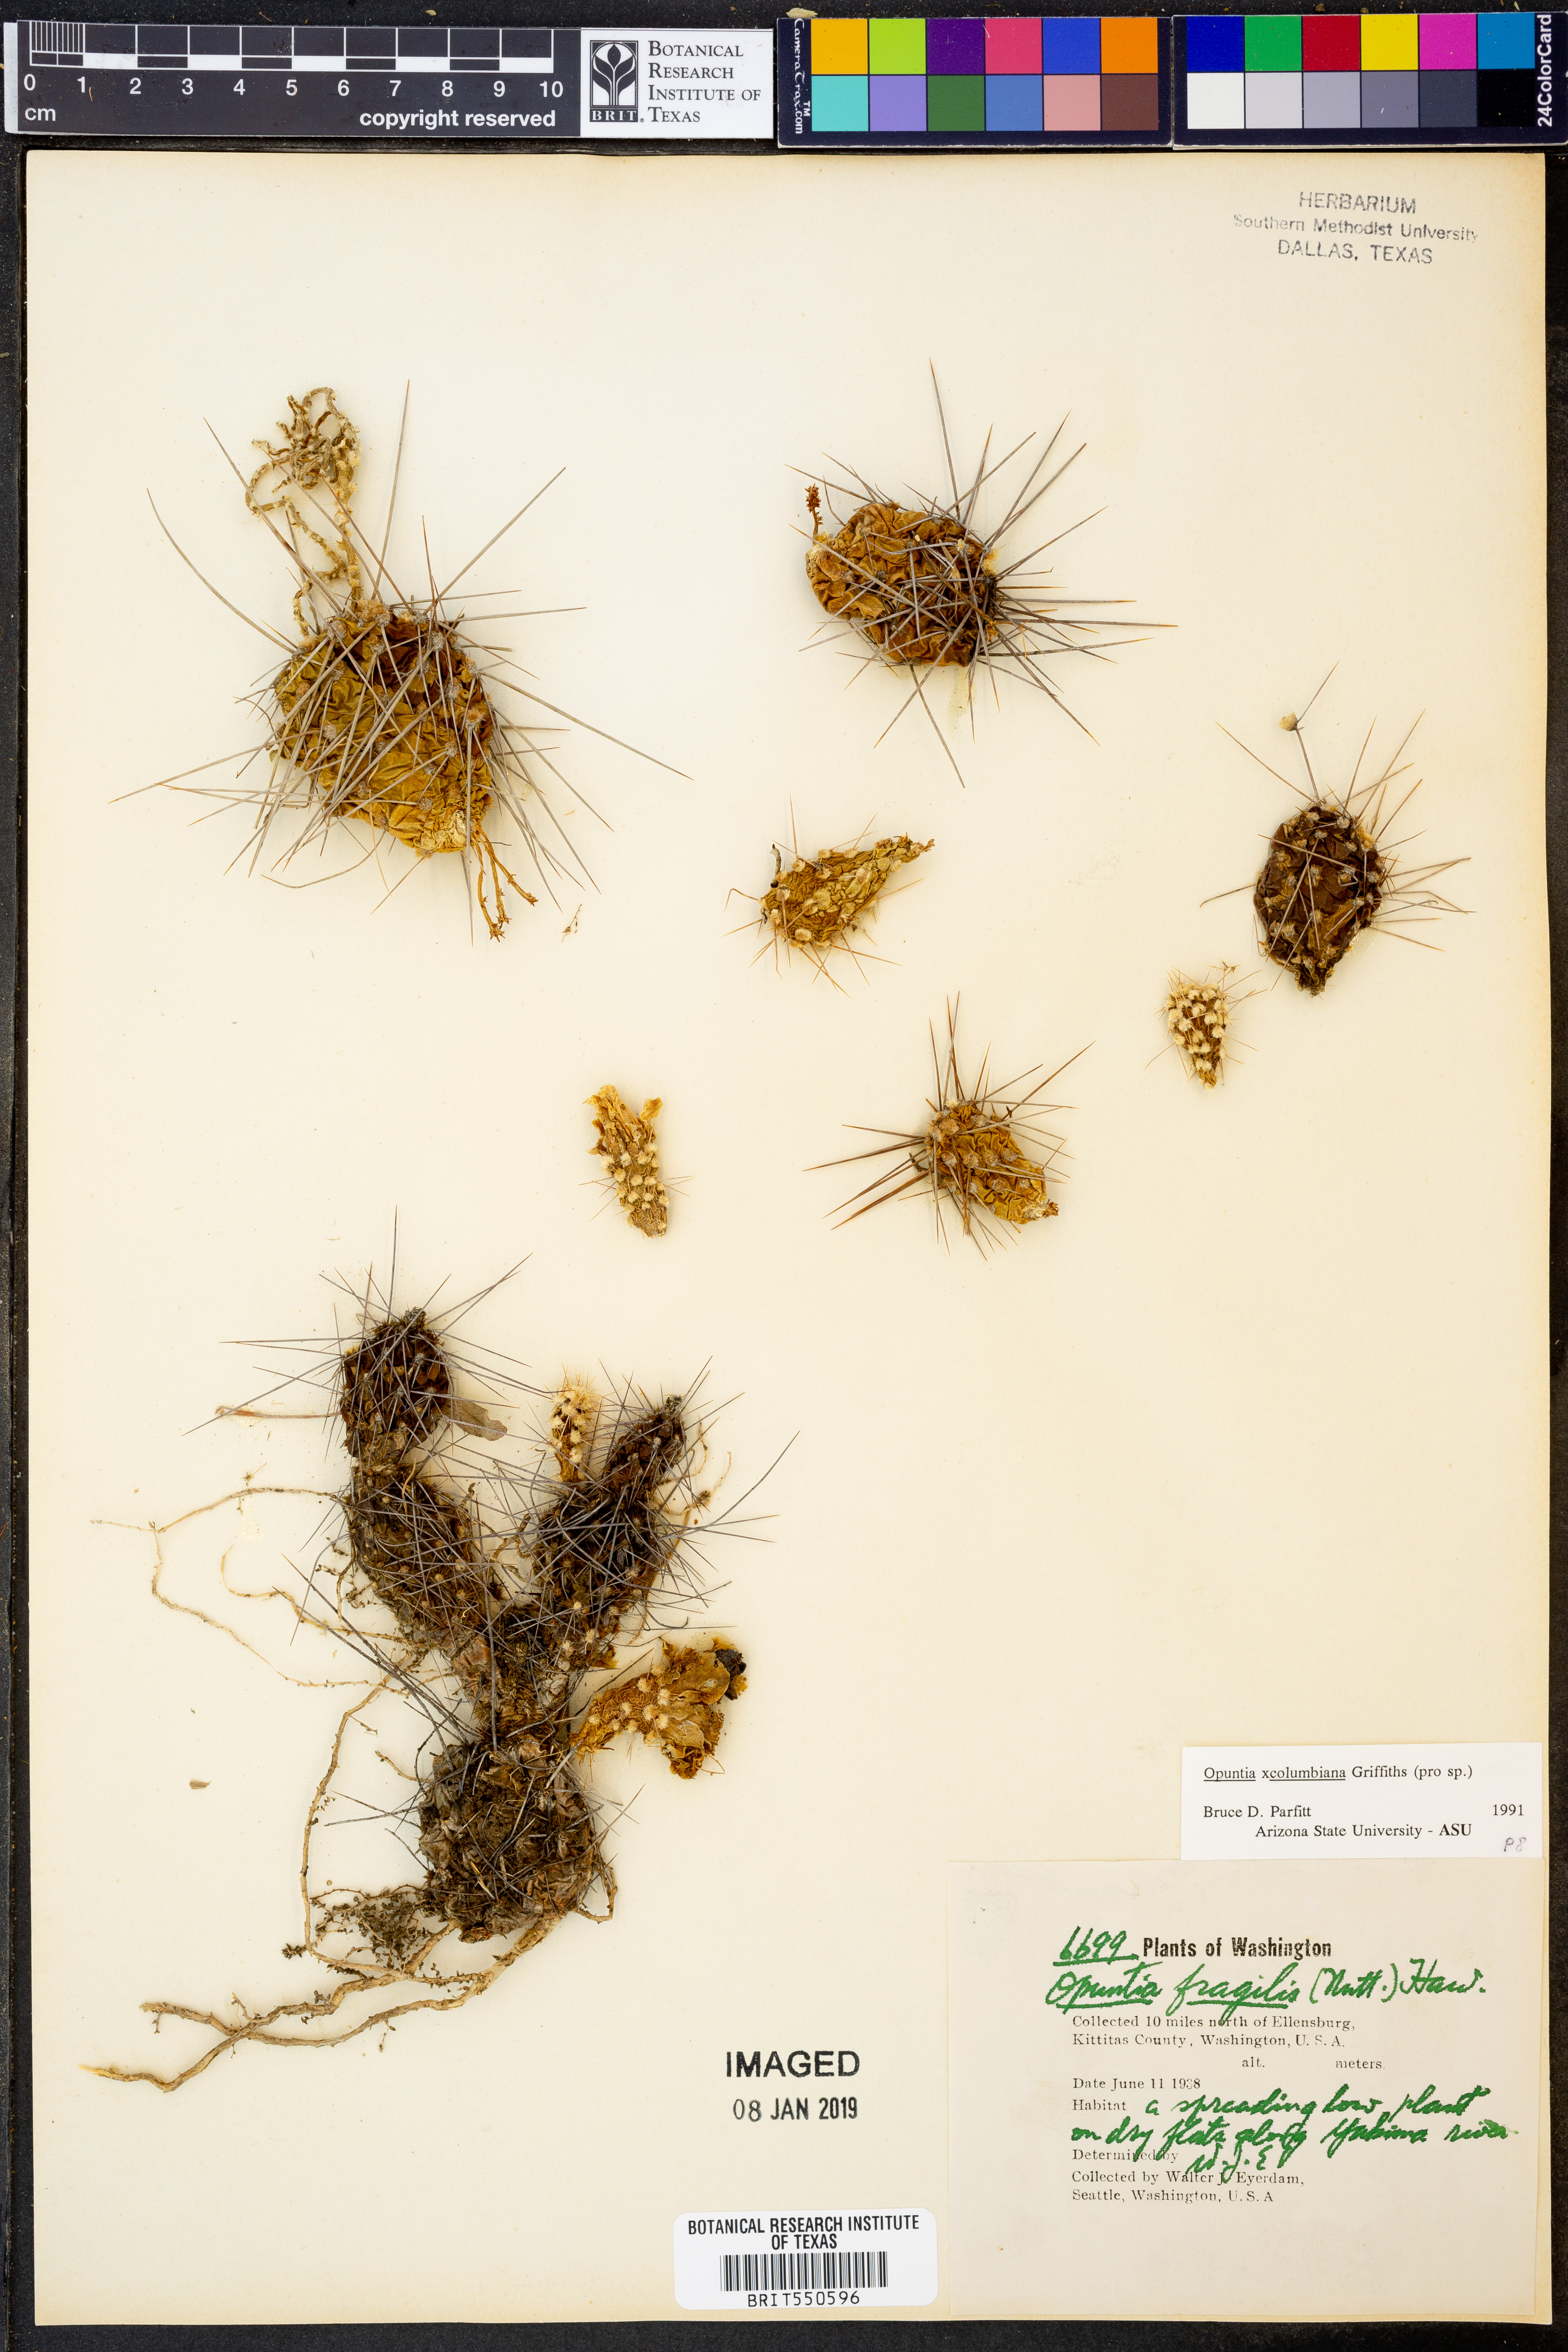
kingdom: Plantae
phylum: Tracheophyta
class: Magnoliopsida
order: Caryophyllales
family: Cactaceae
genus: Opuntia
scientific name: Opuntia
